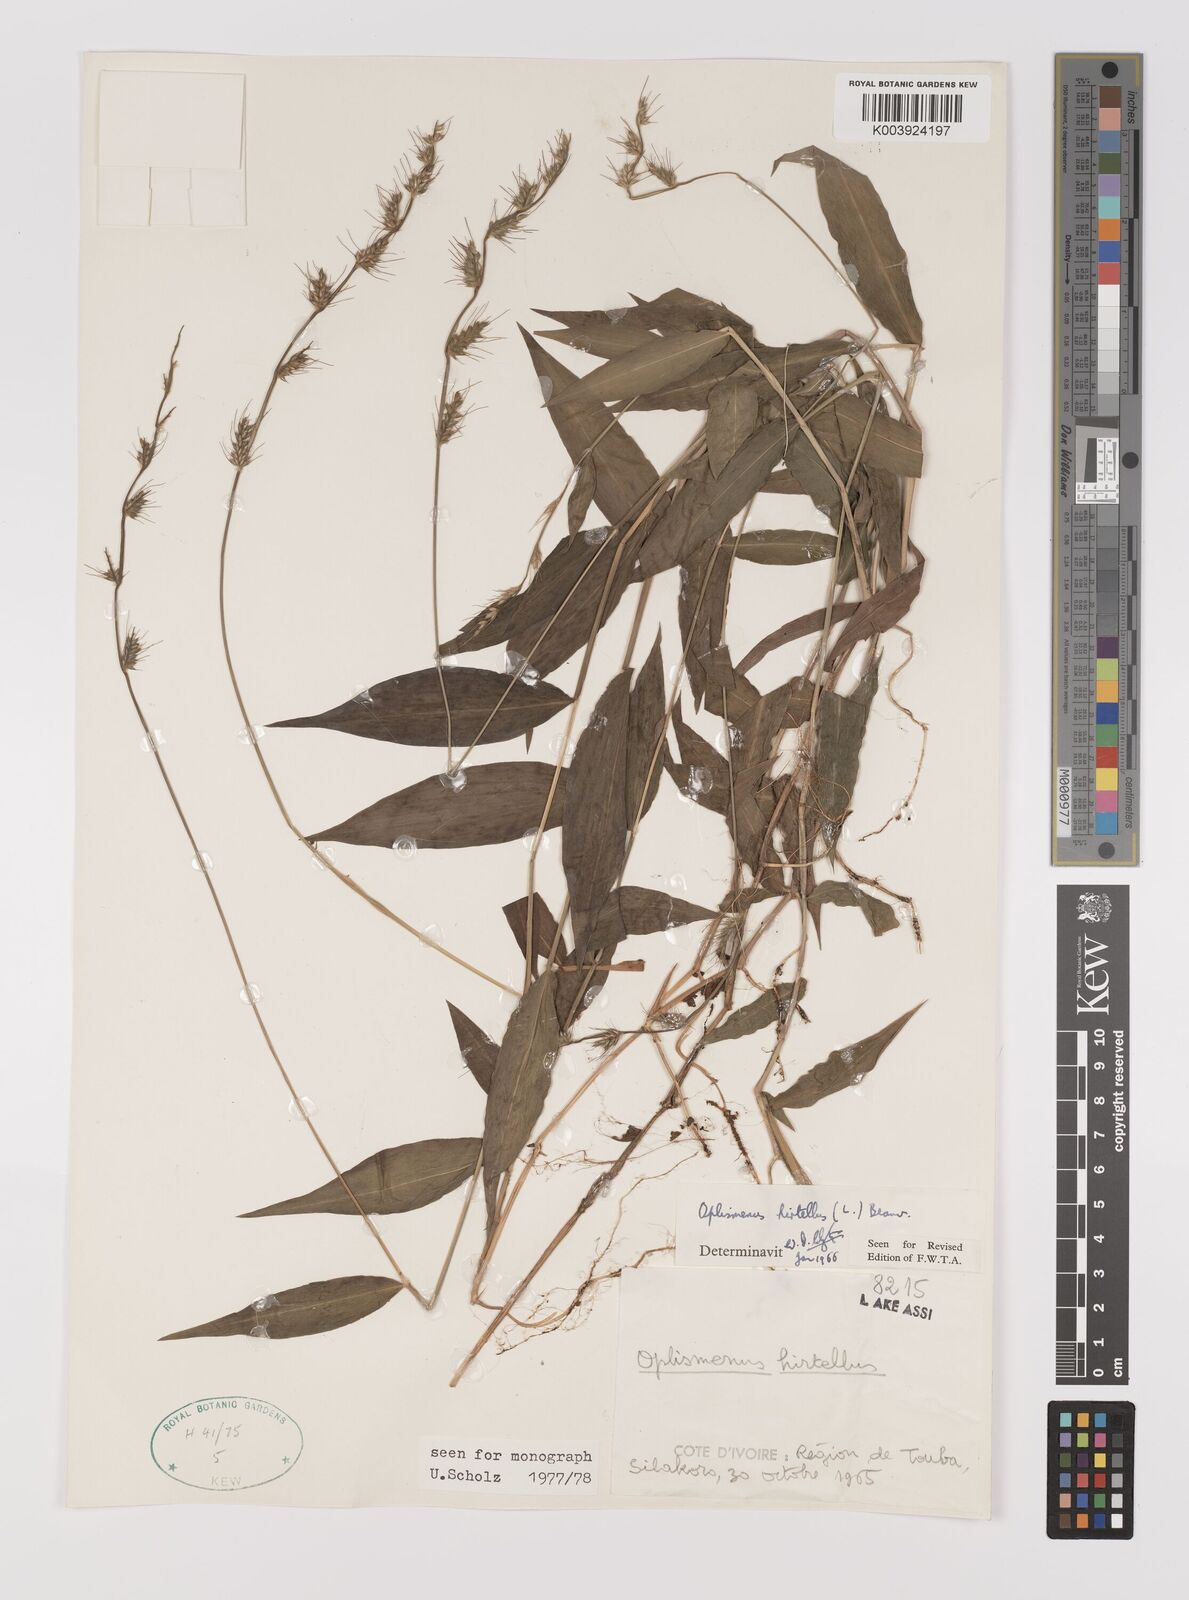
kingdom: Plantae
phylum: Tracheophyta
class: Liliopsida
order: Poales
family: Poaceae
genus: Oplismenus
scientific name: Oplismenus hirtellus
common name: Basketgrass
